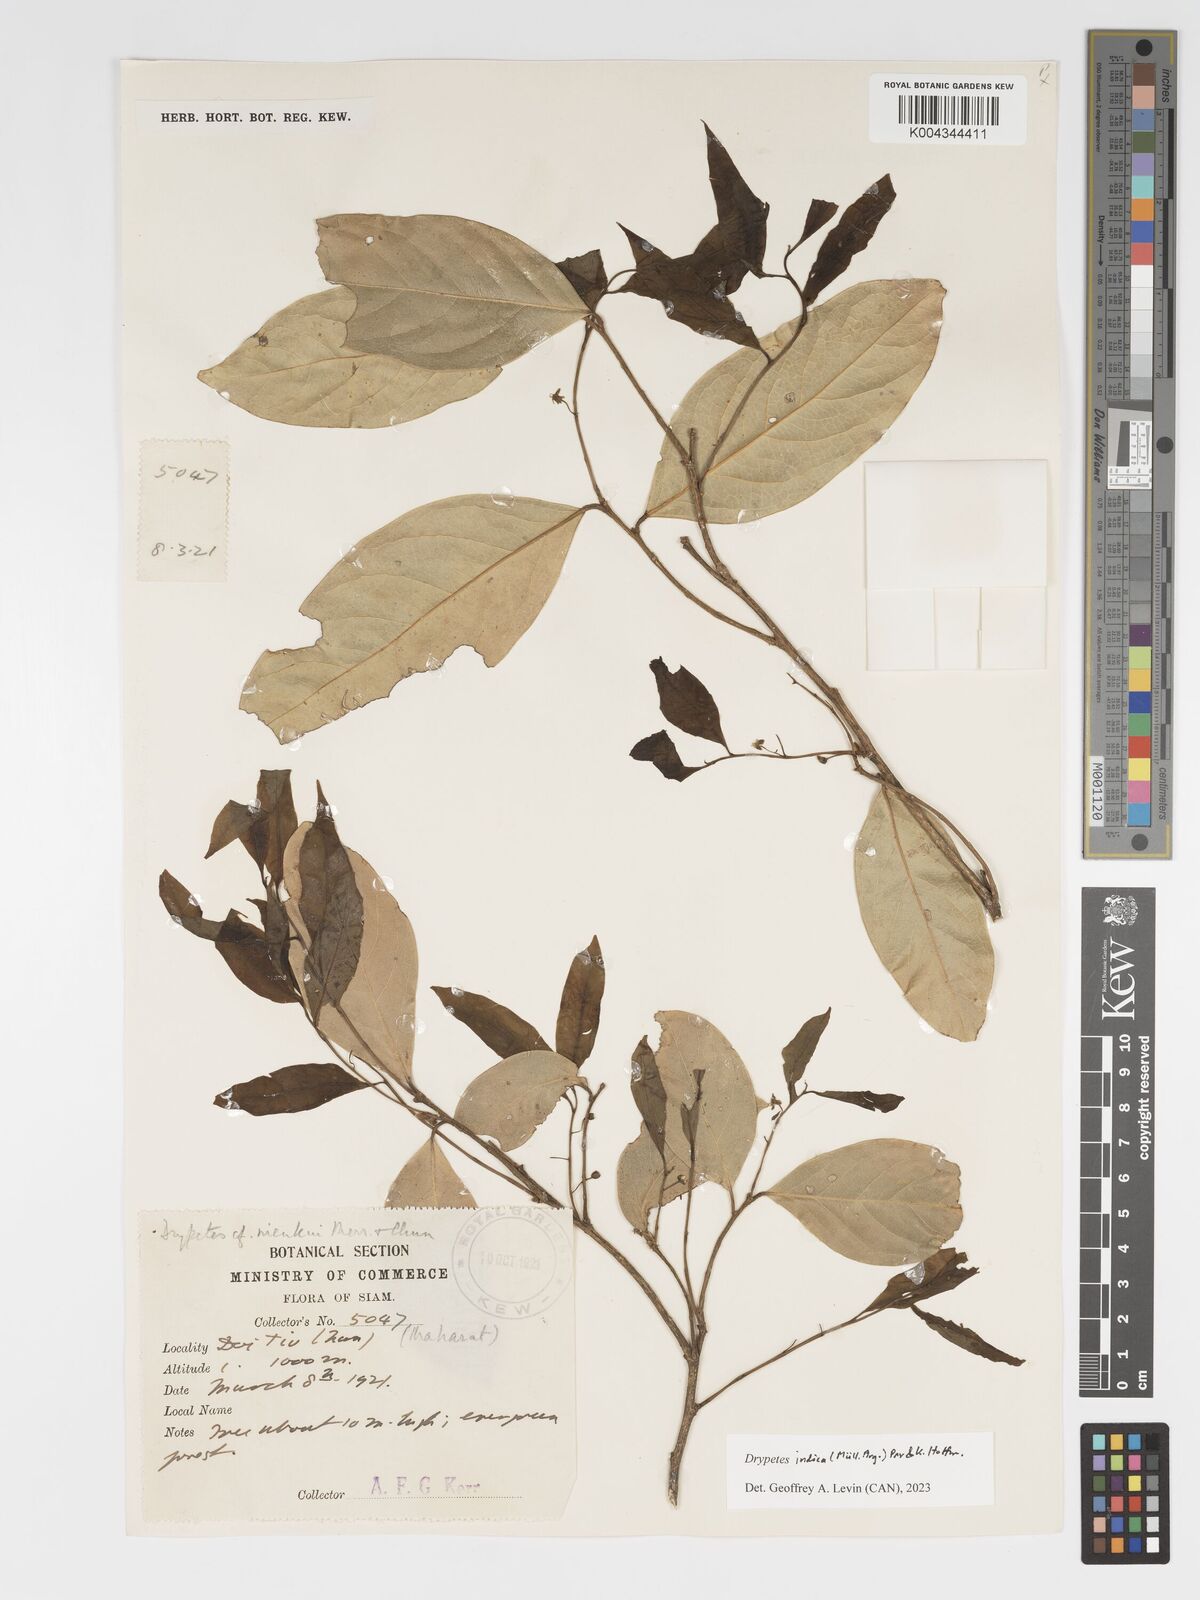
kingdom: Plantae
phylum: Tracheophyta
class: Magnoliopsida
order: Malpighiales
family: Putranjivaceae
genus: Drypetes
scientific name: Drypetes indica
